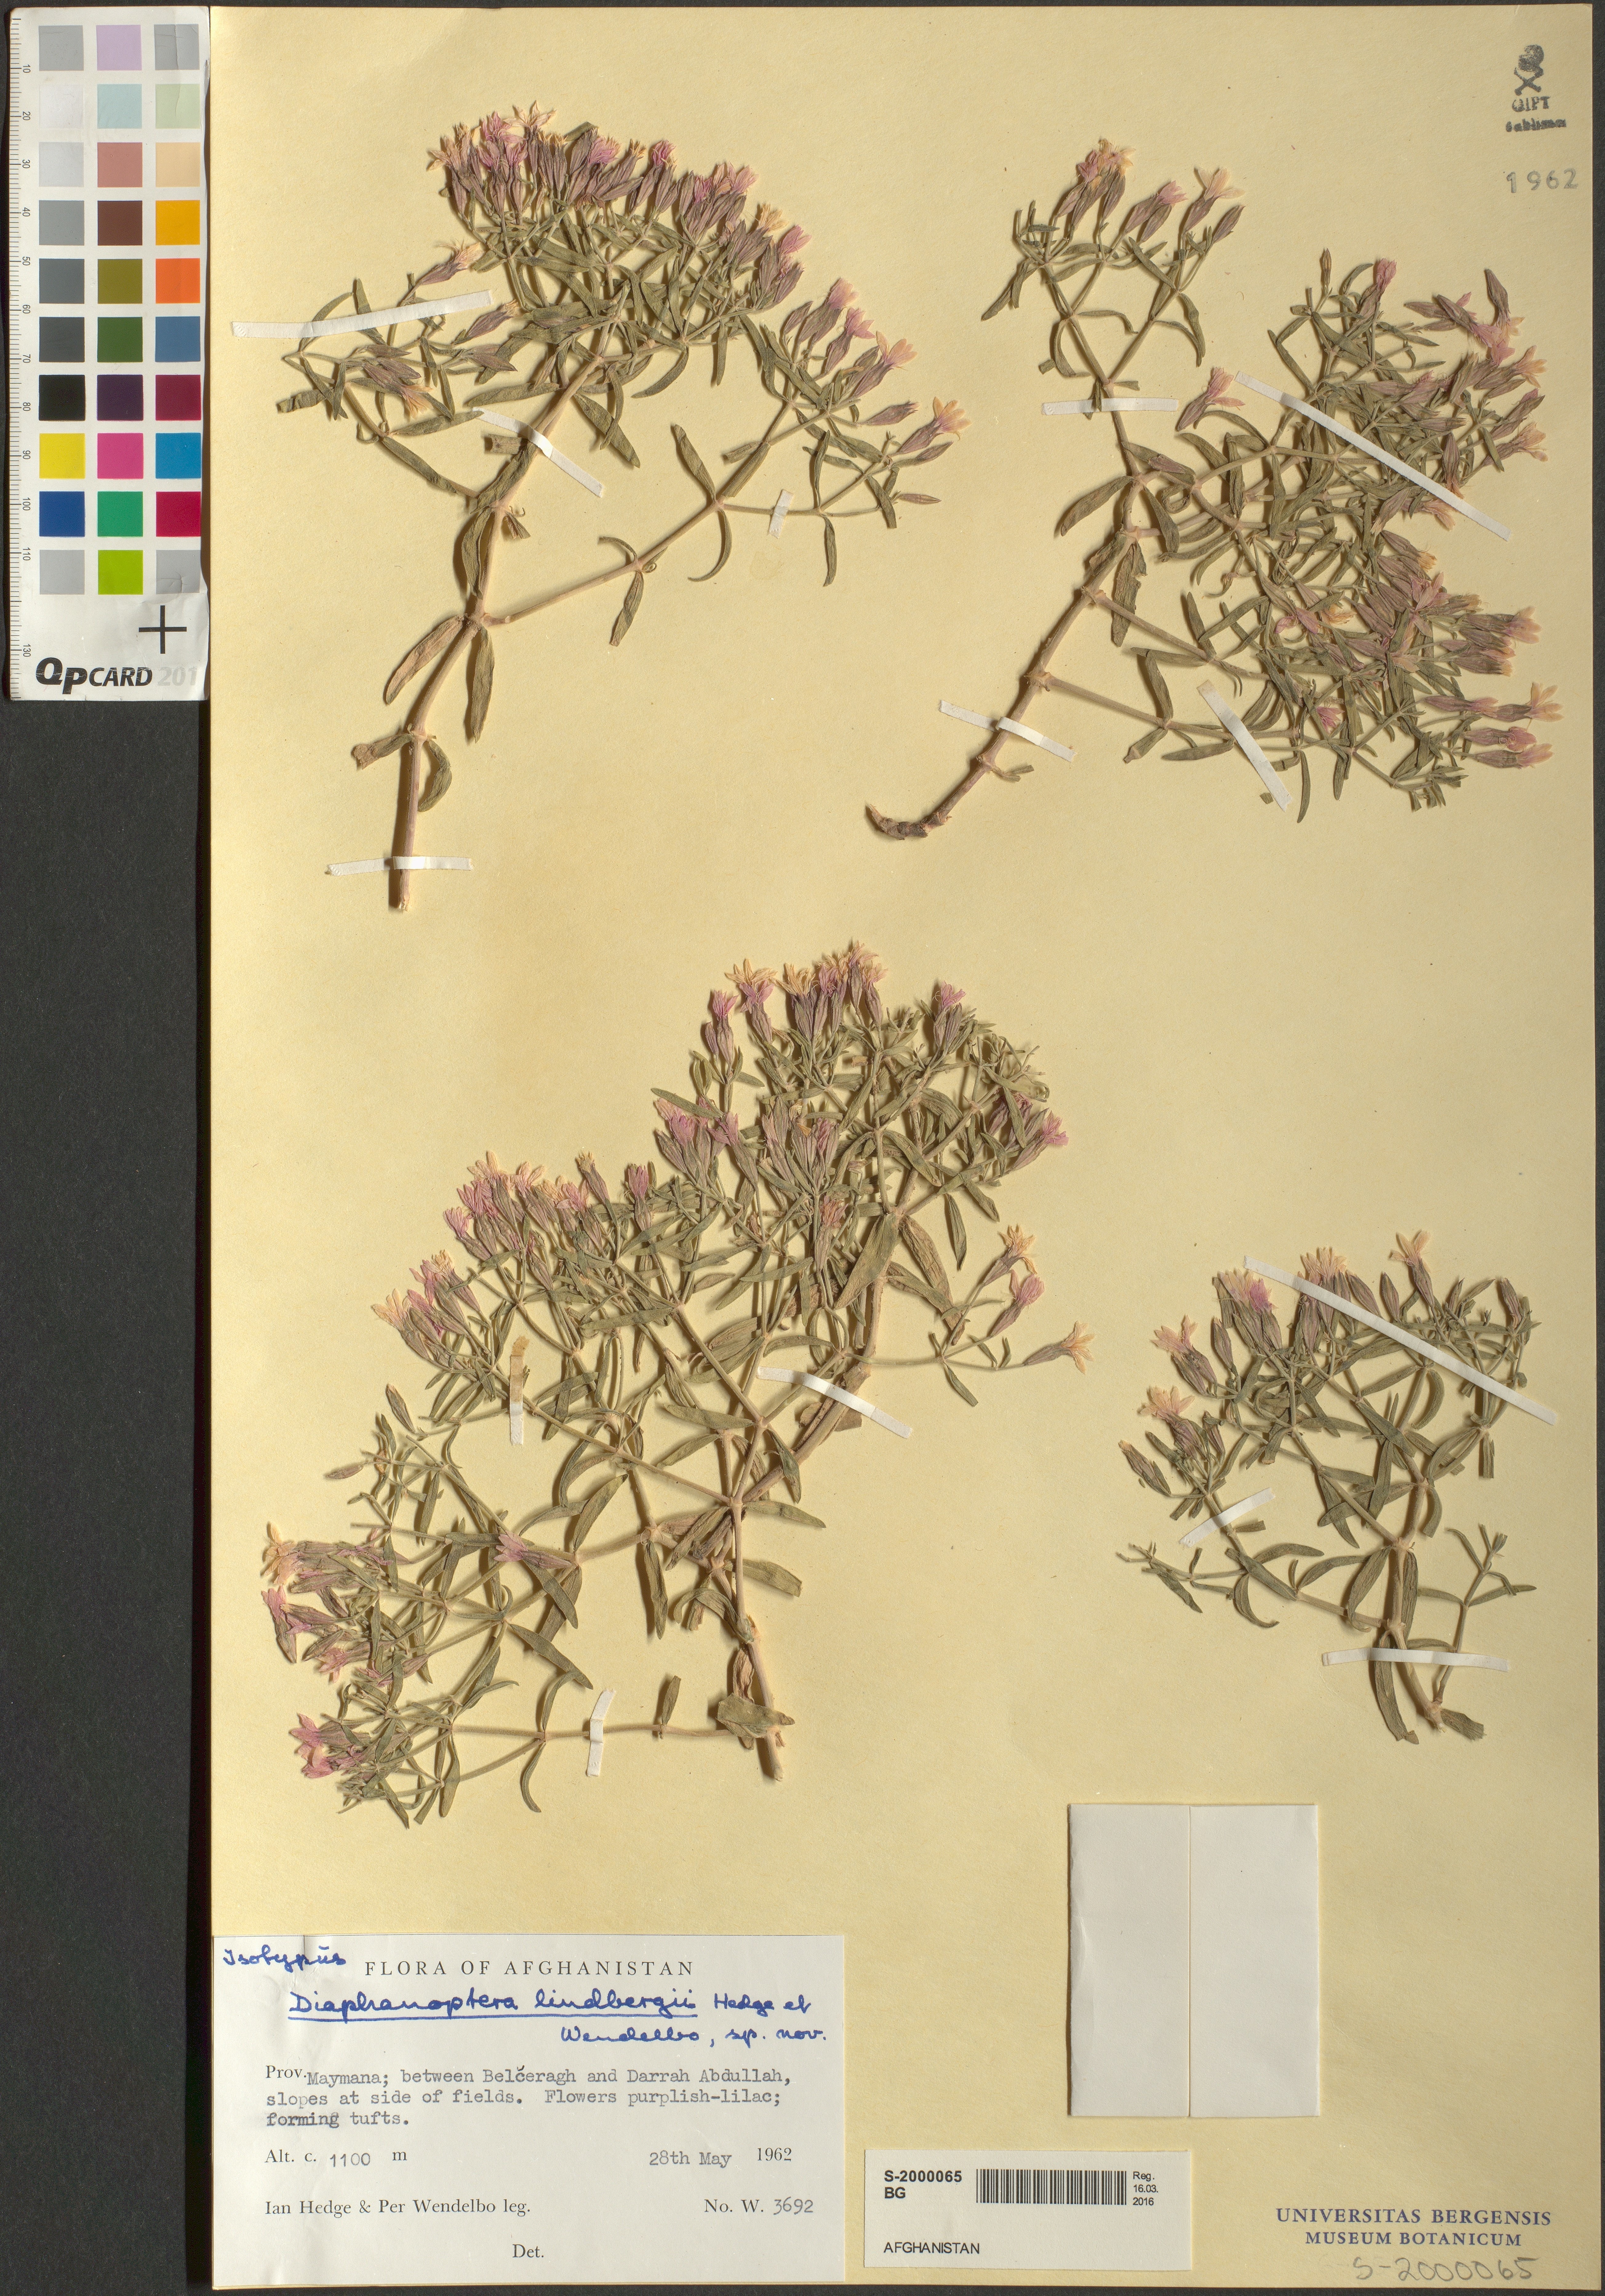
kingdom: Plantae
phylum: Tracheophyta
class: Magnoliopsida
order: Caryophyllales
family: Caryophyllaceae
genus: Acanthophyllum
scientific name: Acanthophyllum lindbergii
